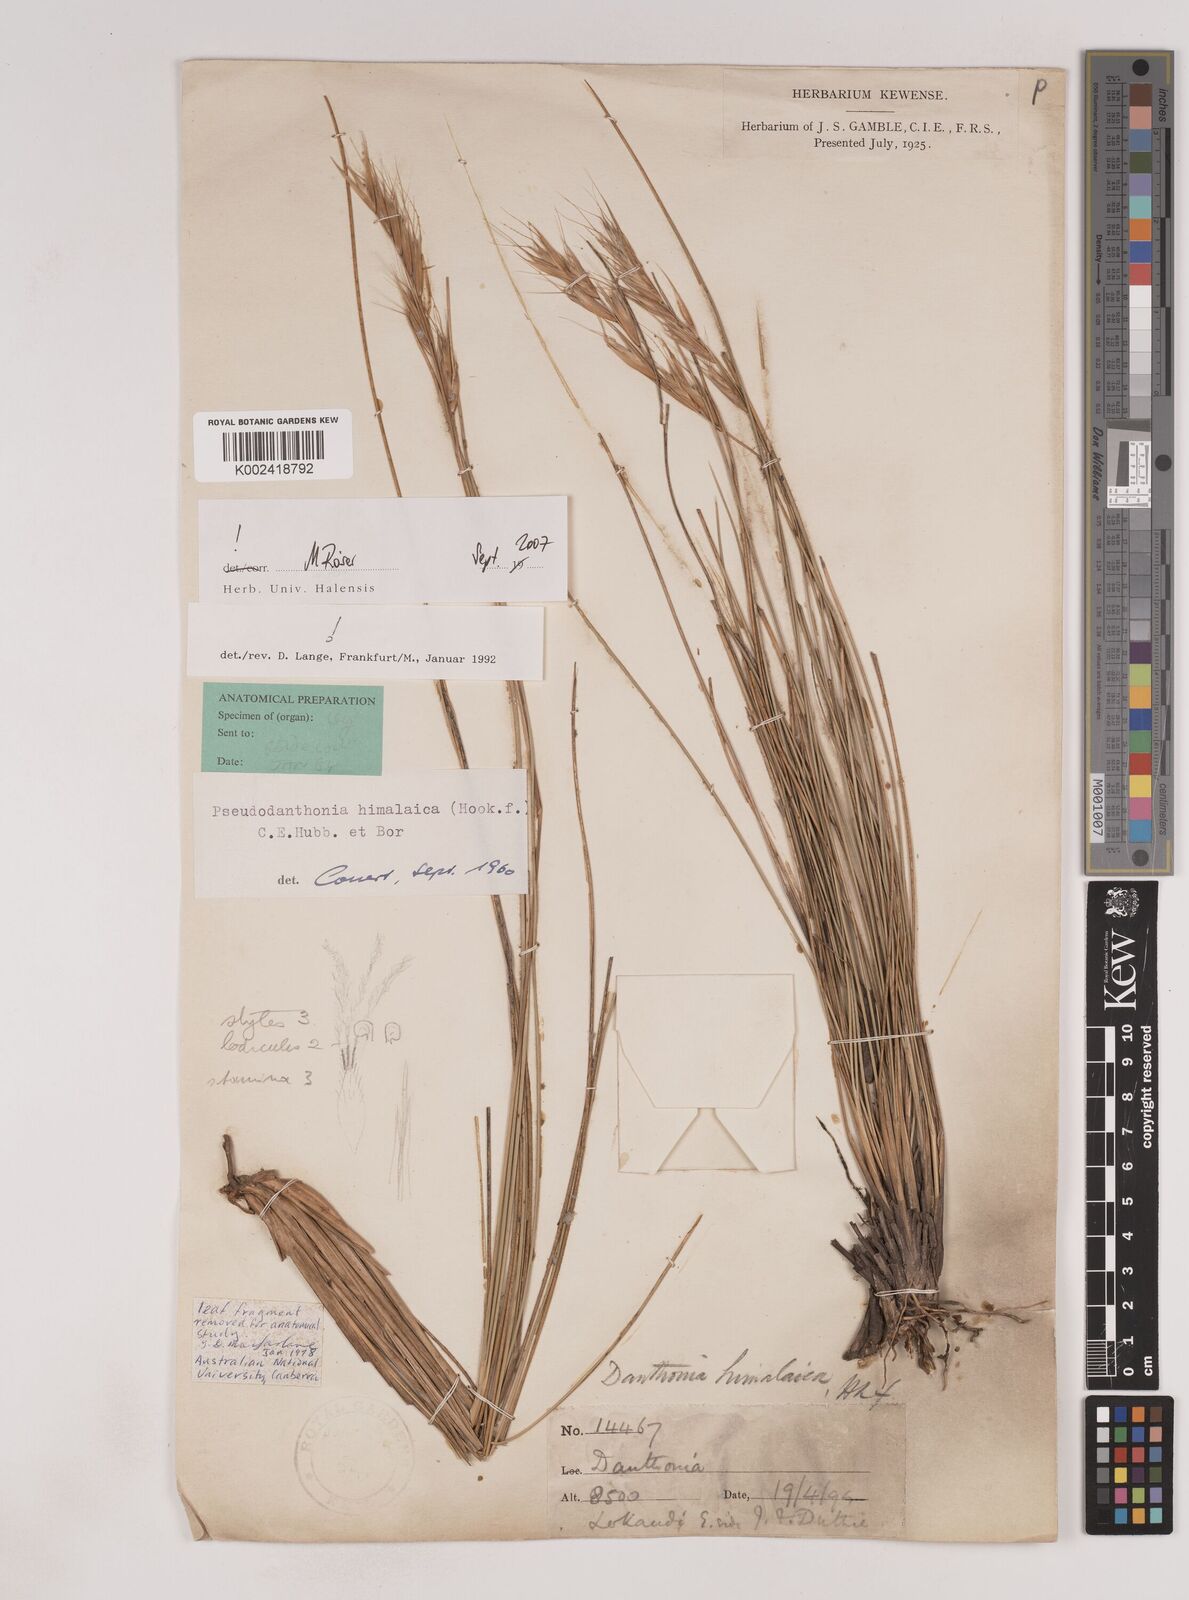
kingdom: Plantae
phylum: Tracheophyta
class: Liliopsida
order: Poales
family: Poaceae
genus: Pseudodanthonia
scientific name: Pseudodanthonia himalaica
